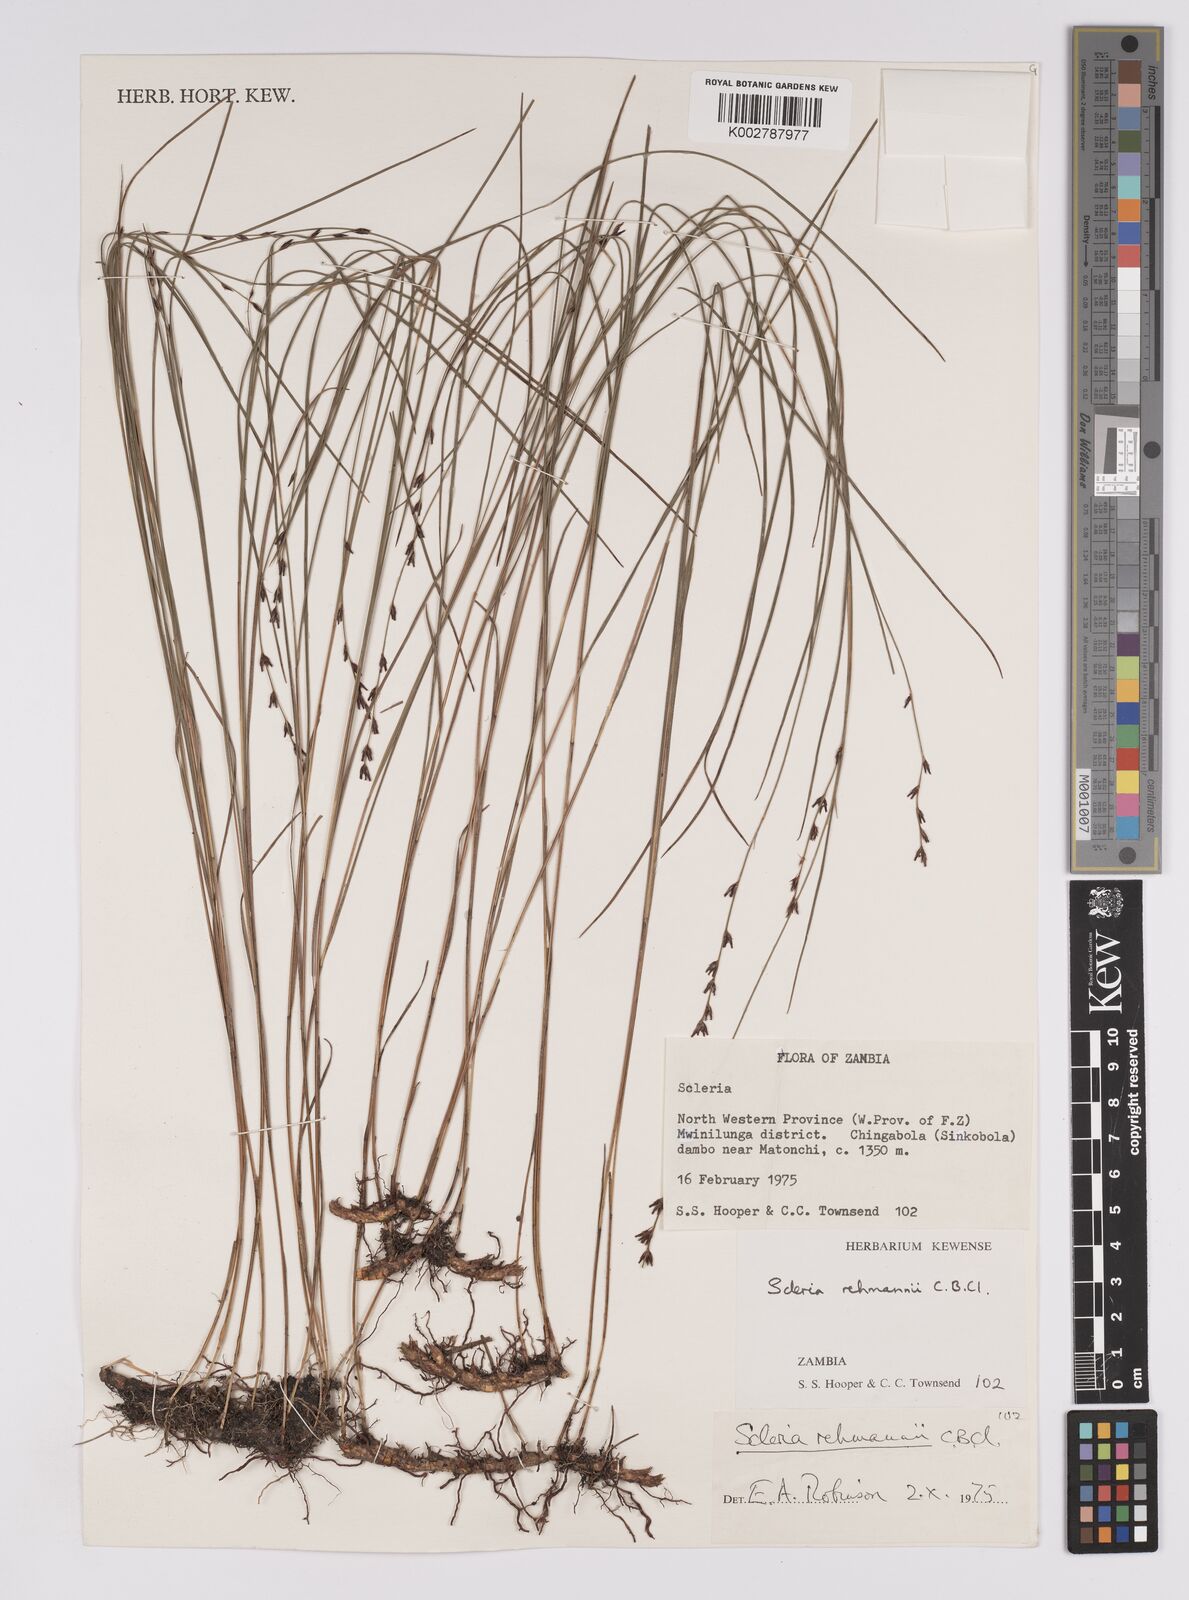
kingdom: Plantae
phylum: Tracheophyta
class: Liliopsida
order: Poales
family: Cyperaceae
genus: Scleria
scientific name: Scleria rehmannii
